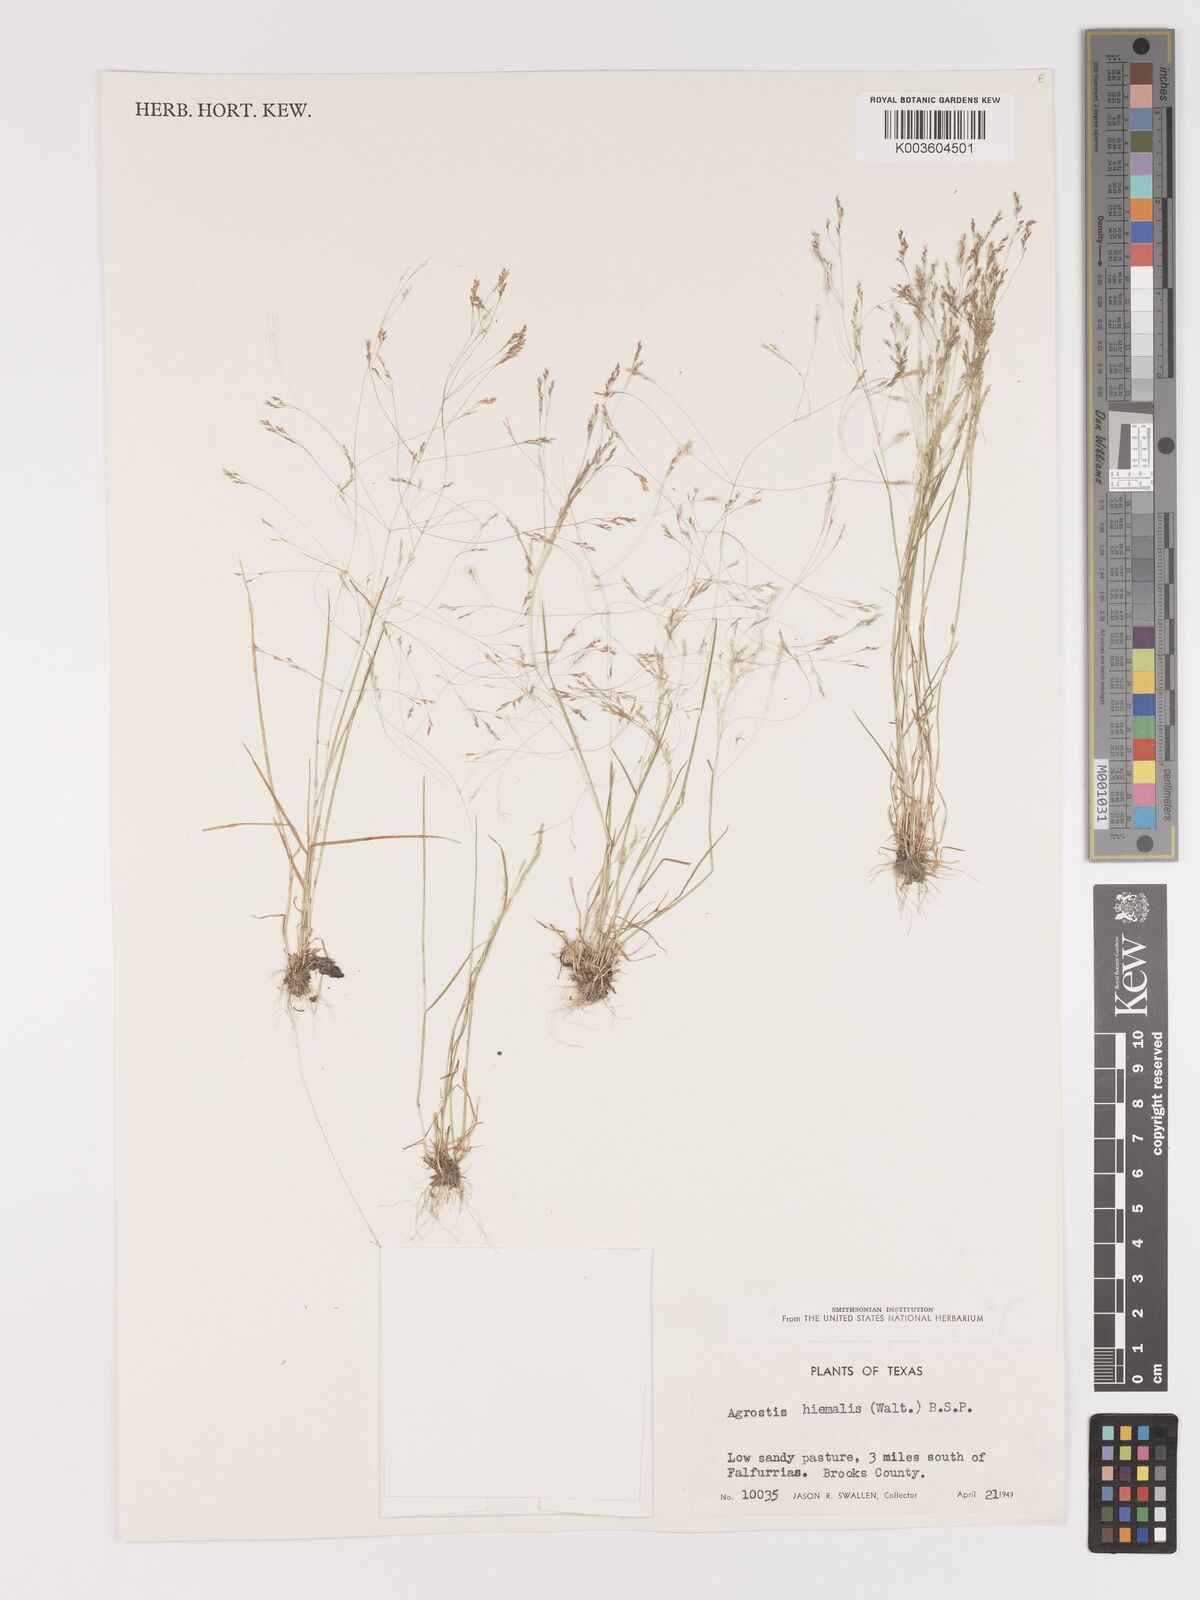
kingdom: Plantae
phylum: Tracheophyta
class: Liliopsida
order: Poales
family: Poaceae
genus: Agrostis
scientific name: Agrostis hyemalis
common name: Small bent
